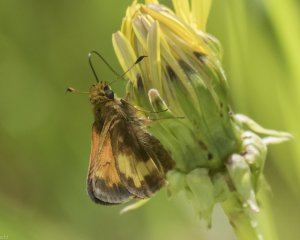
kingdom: Animalia
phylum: Arthropoda
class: Insecta
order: Lepidoptera
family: Hesperiidae
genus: Lon
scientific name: Lon hobomok
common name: Hobomok Skipper
